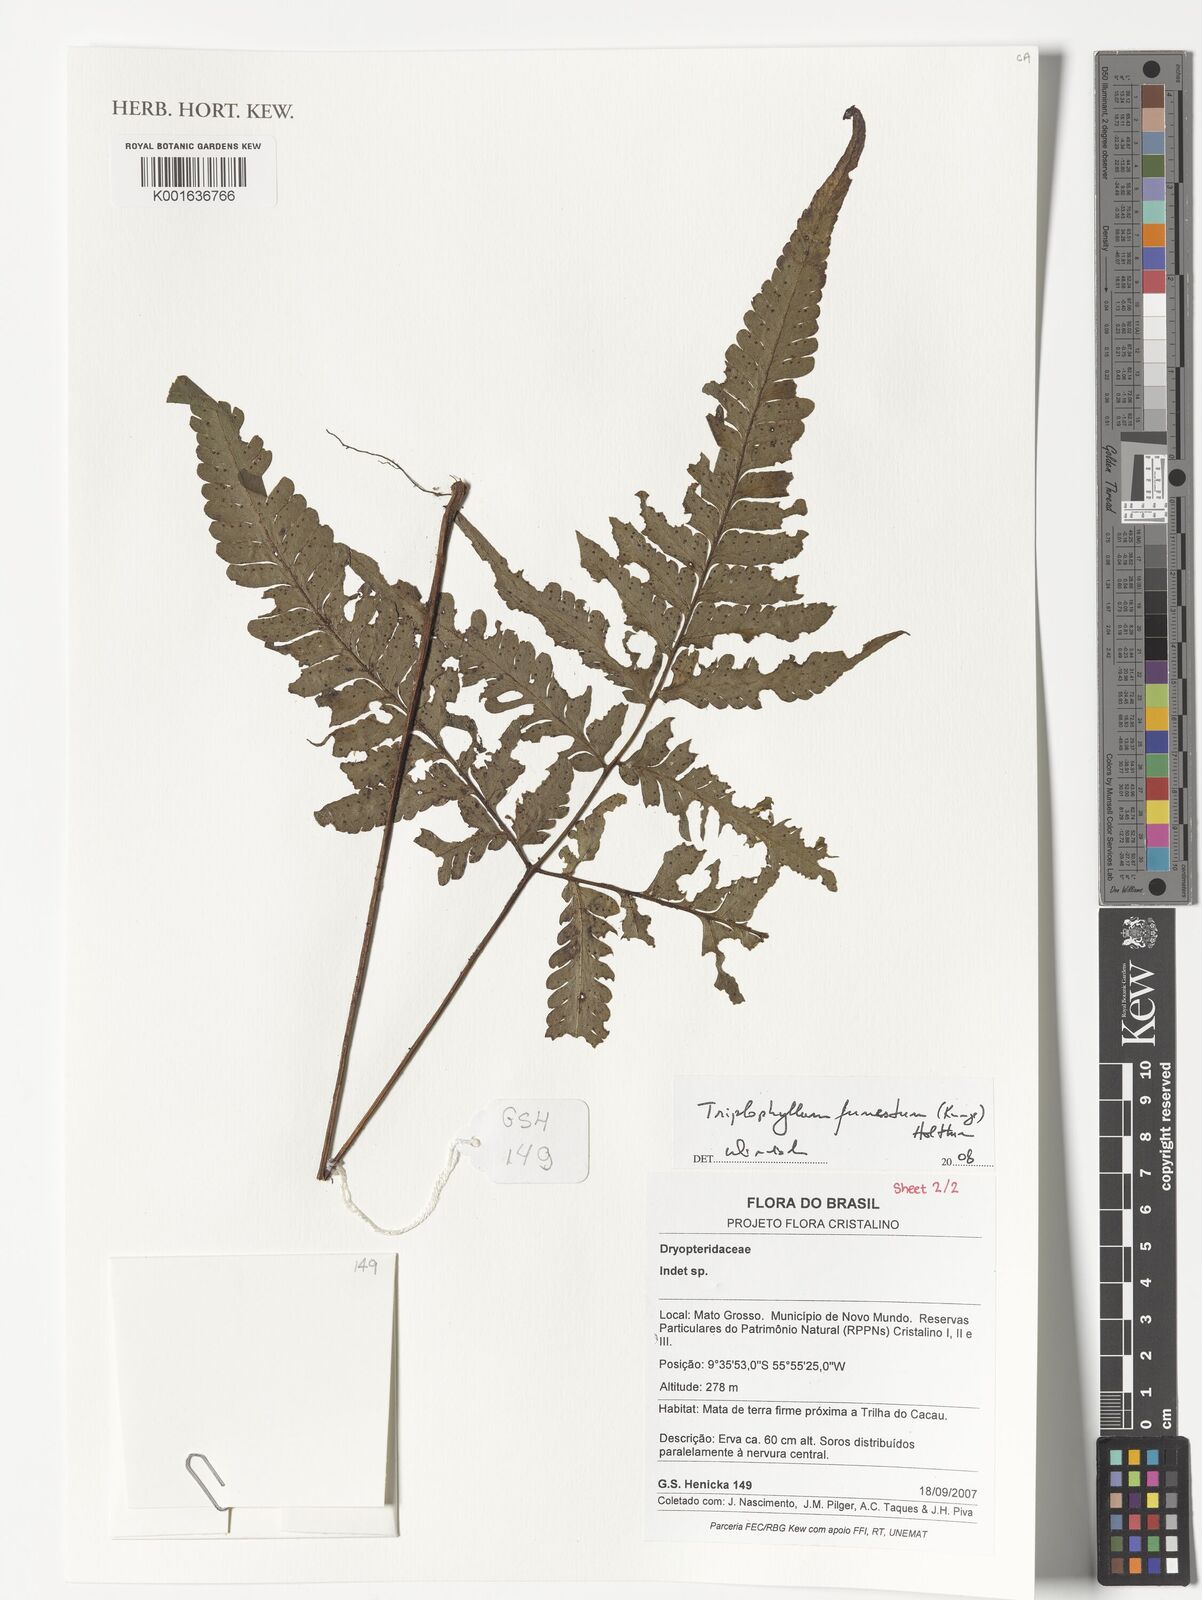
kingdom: Plantae
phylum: Tracheophyta
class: Polypodiopsida
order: Polypodiales
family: Tectariaceae
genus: Triplophyllum
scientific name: Triplophyllum funestum
